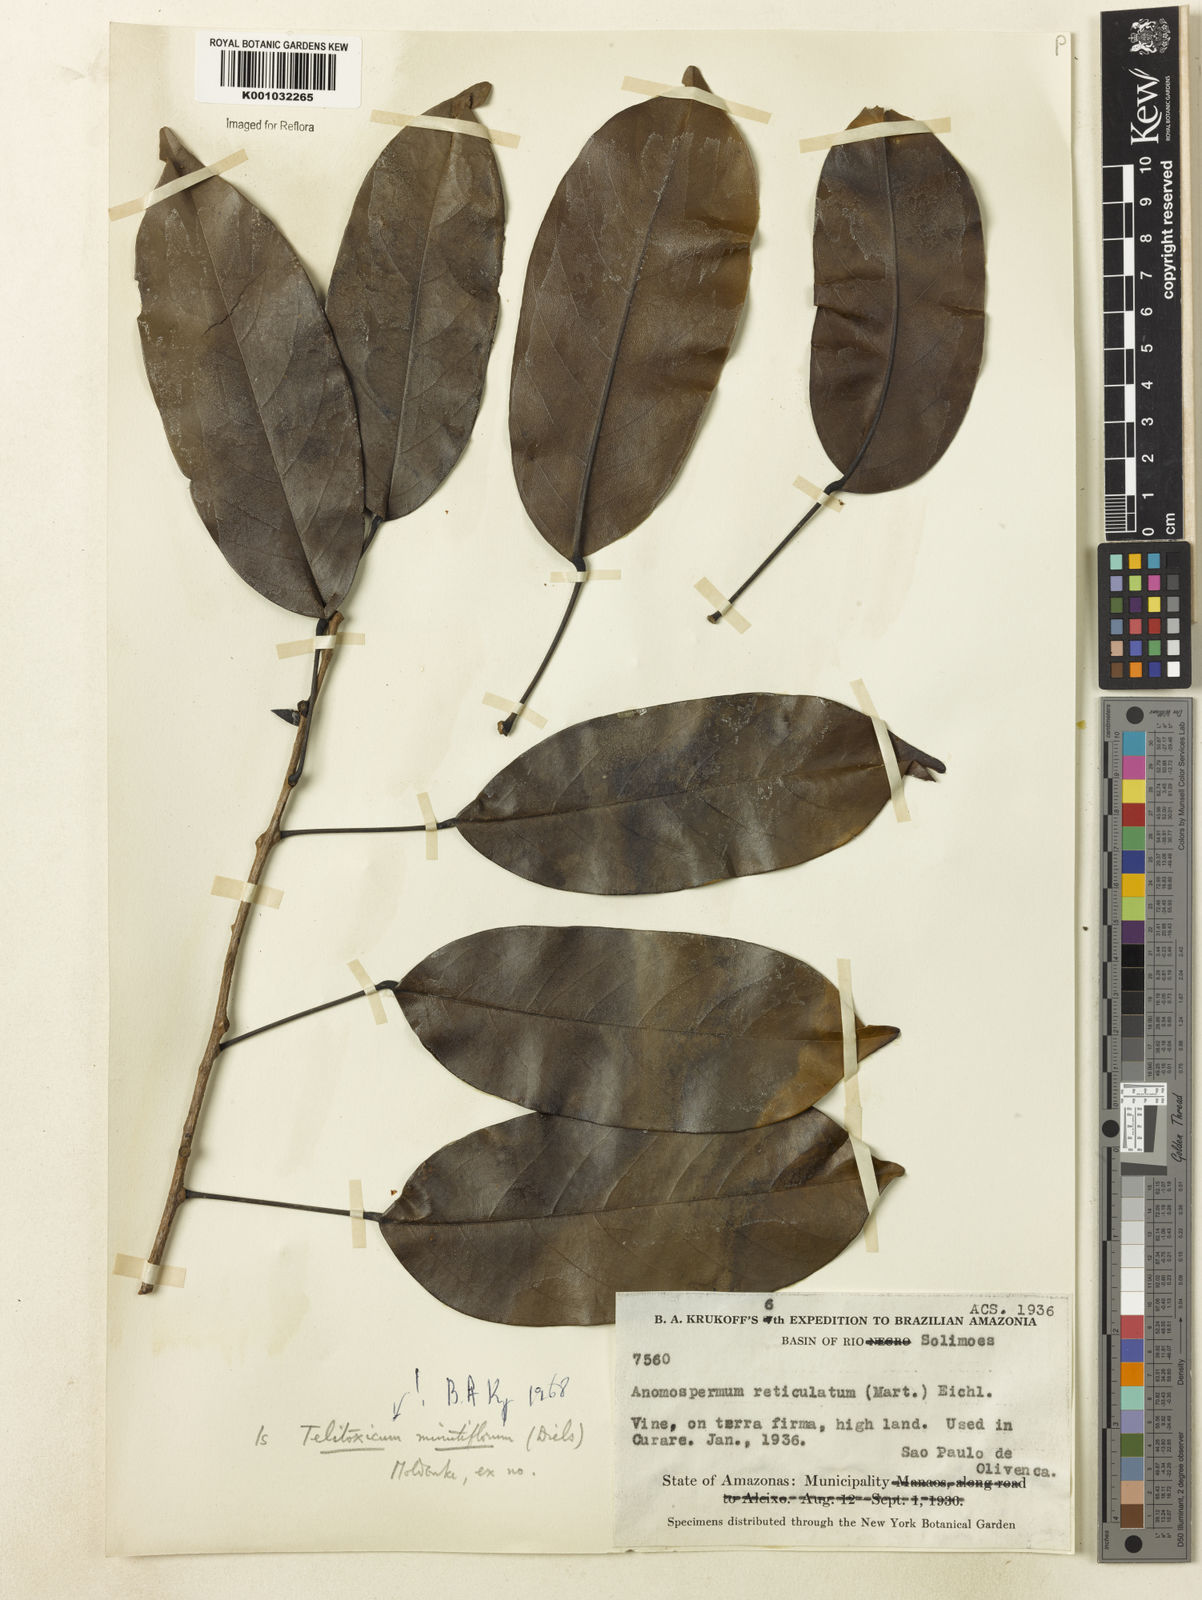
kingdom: Plantae
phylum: Tracheophyta
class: Magnoliopsida
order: Ranunculales
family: Menispermaceae
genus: Telitoxicum
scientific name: Telitoxicum minutiflorum
